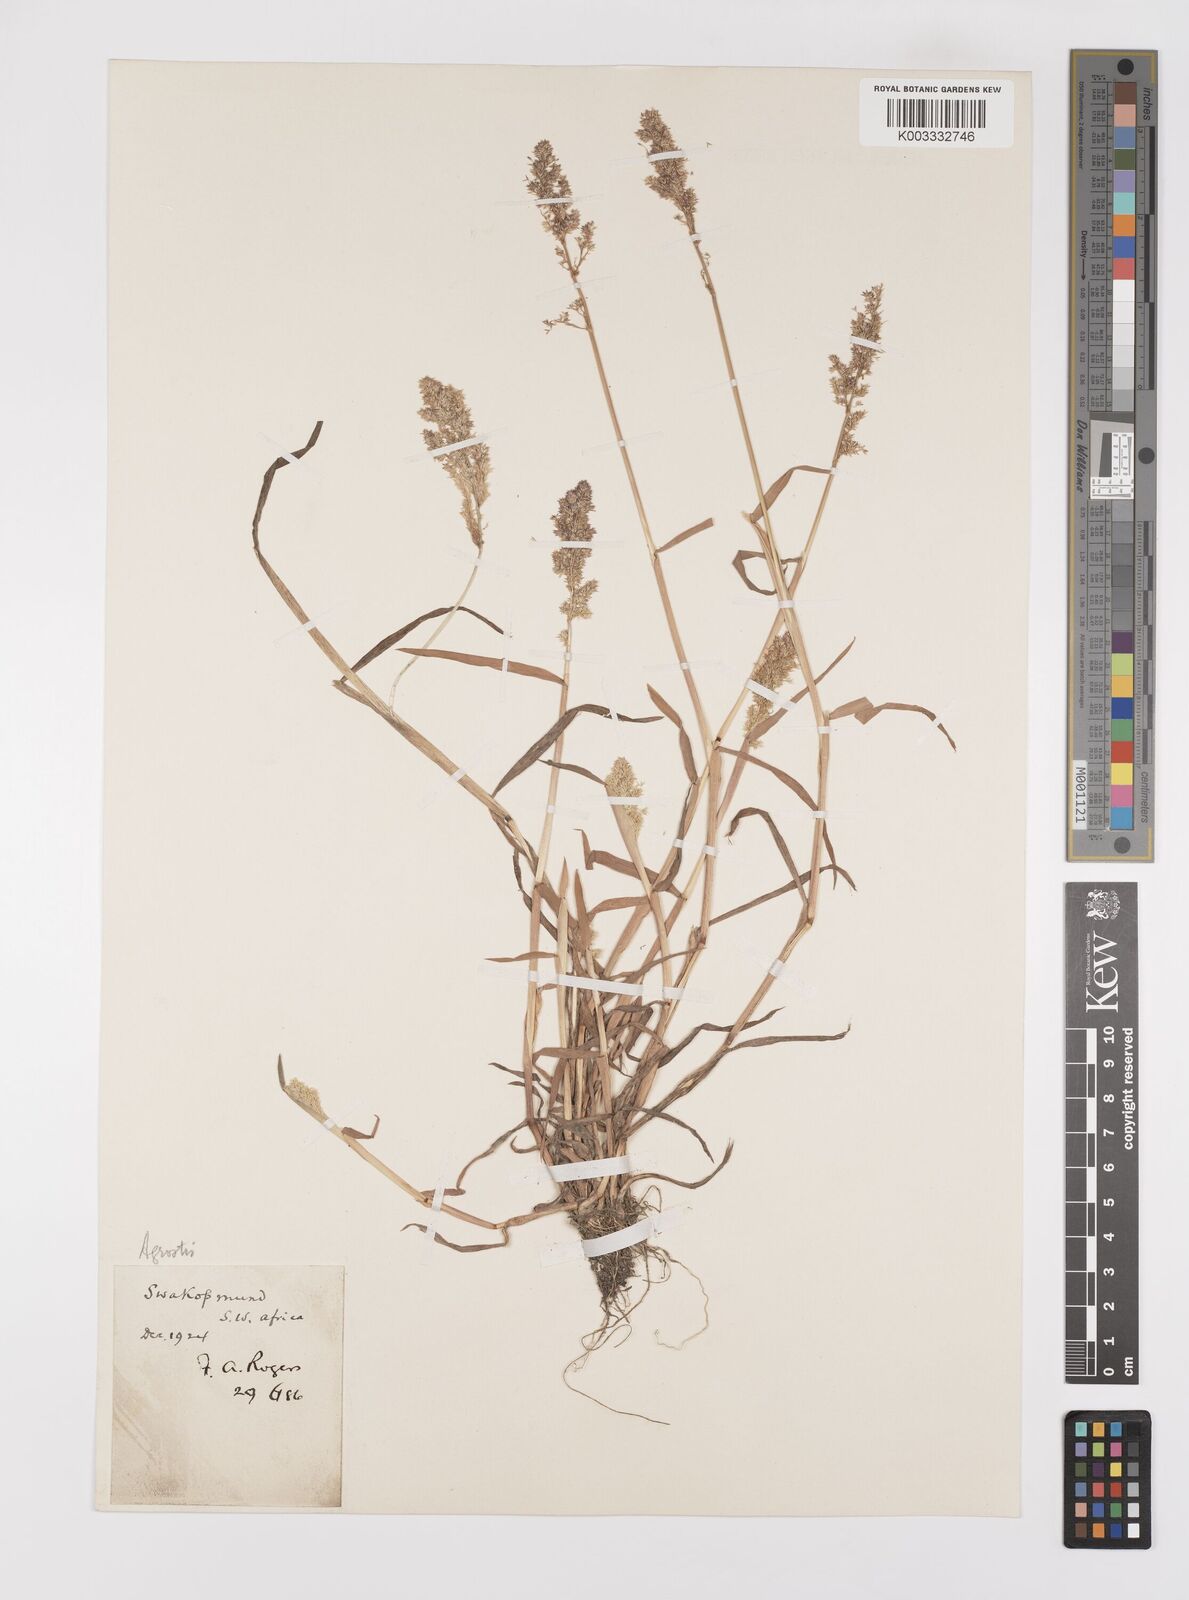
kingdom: Plantae
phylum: Tracheophyta
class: Liliopsida
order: Poales
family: Poaceae
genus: Polypogon
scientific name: Polypogon viridis
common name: Water bent
